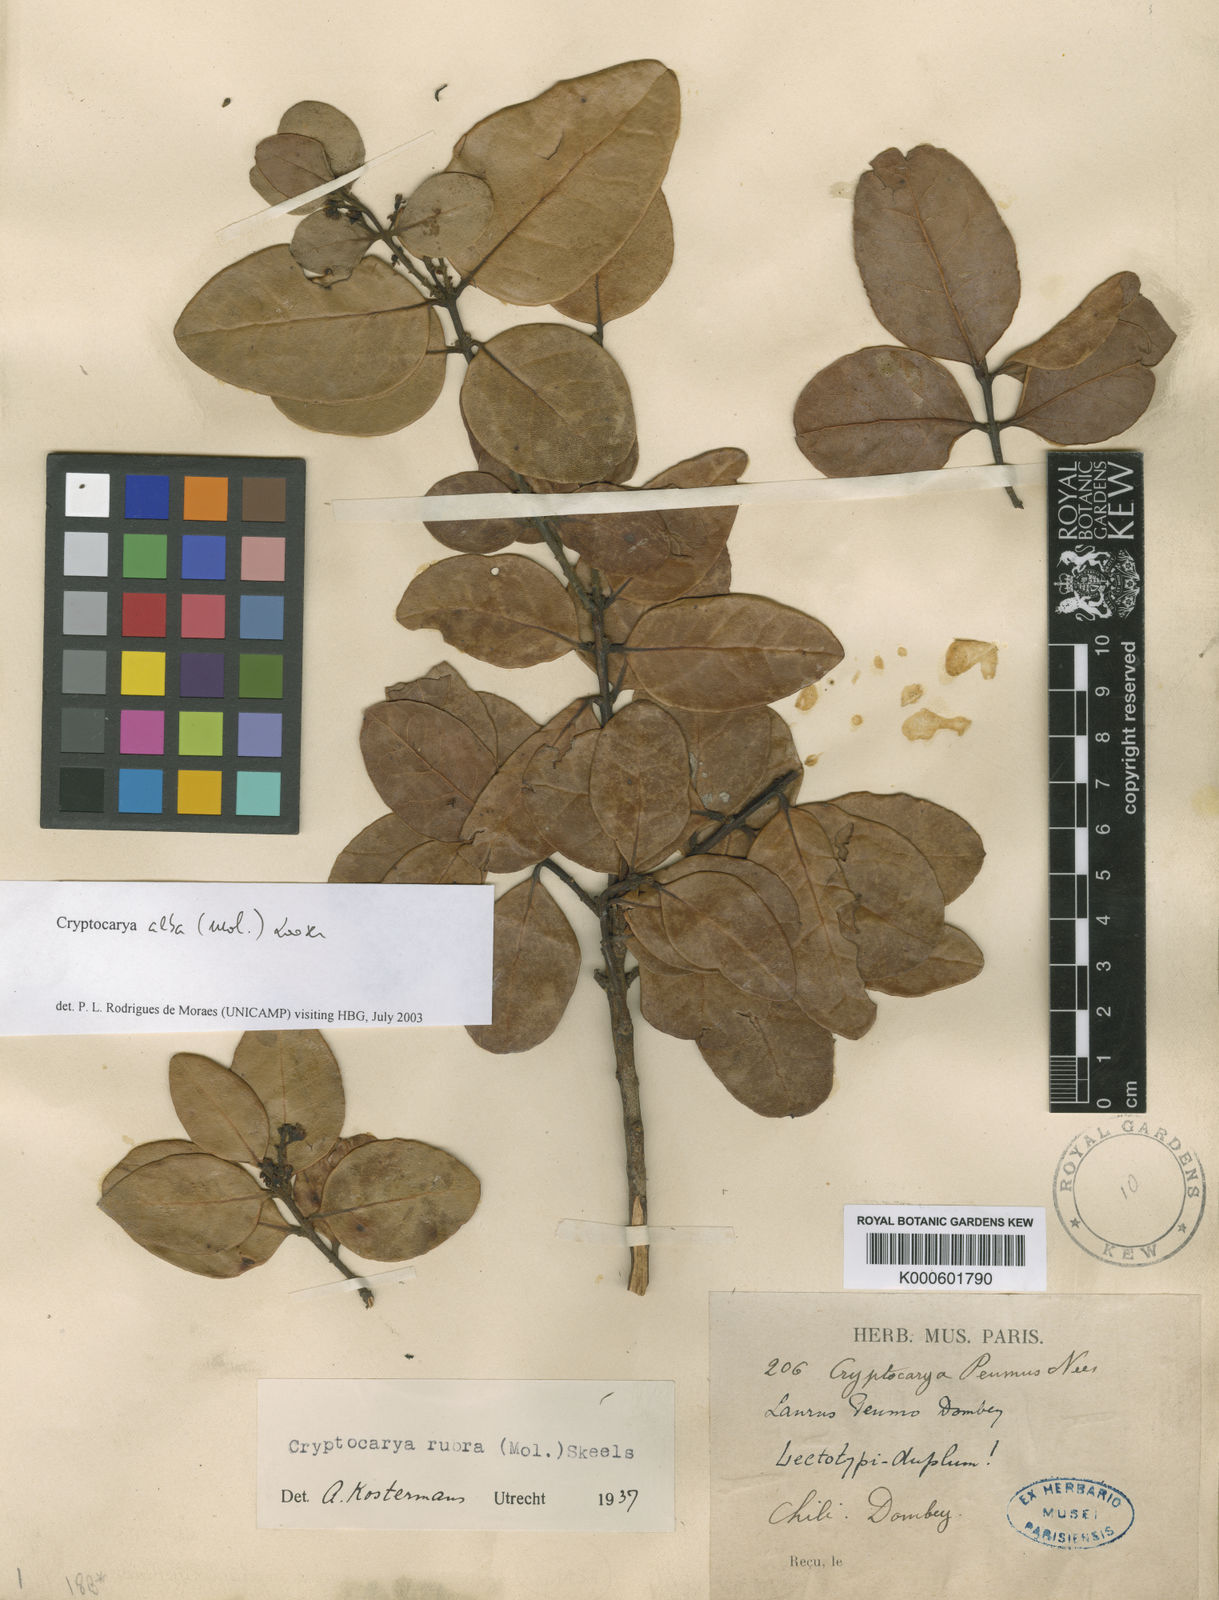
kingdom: Plantae
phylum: Tracheophyta
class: Magnoliopsida
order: Laurales
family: Lauraceae
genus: Cryptocarya
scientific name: Cryptocarya alba
